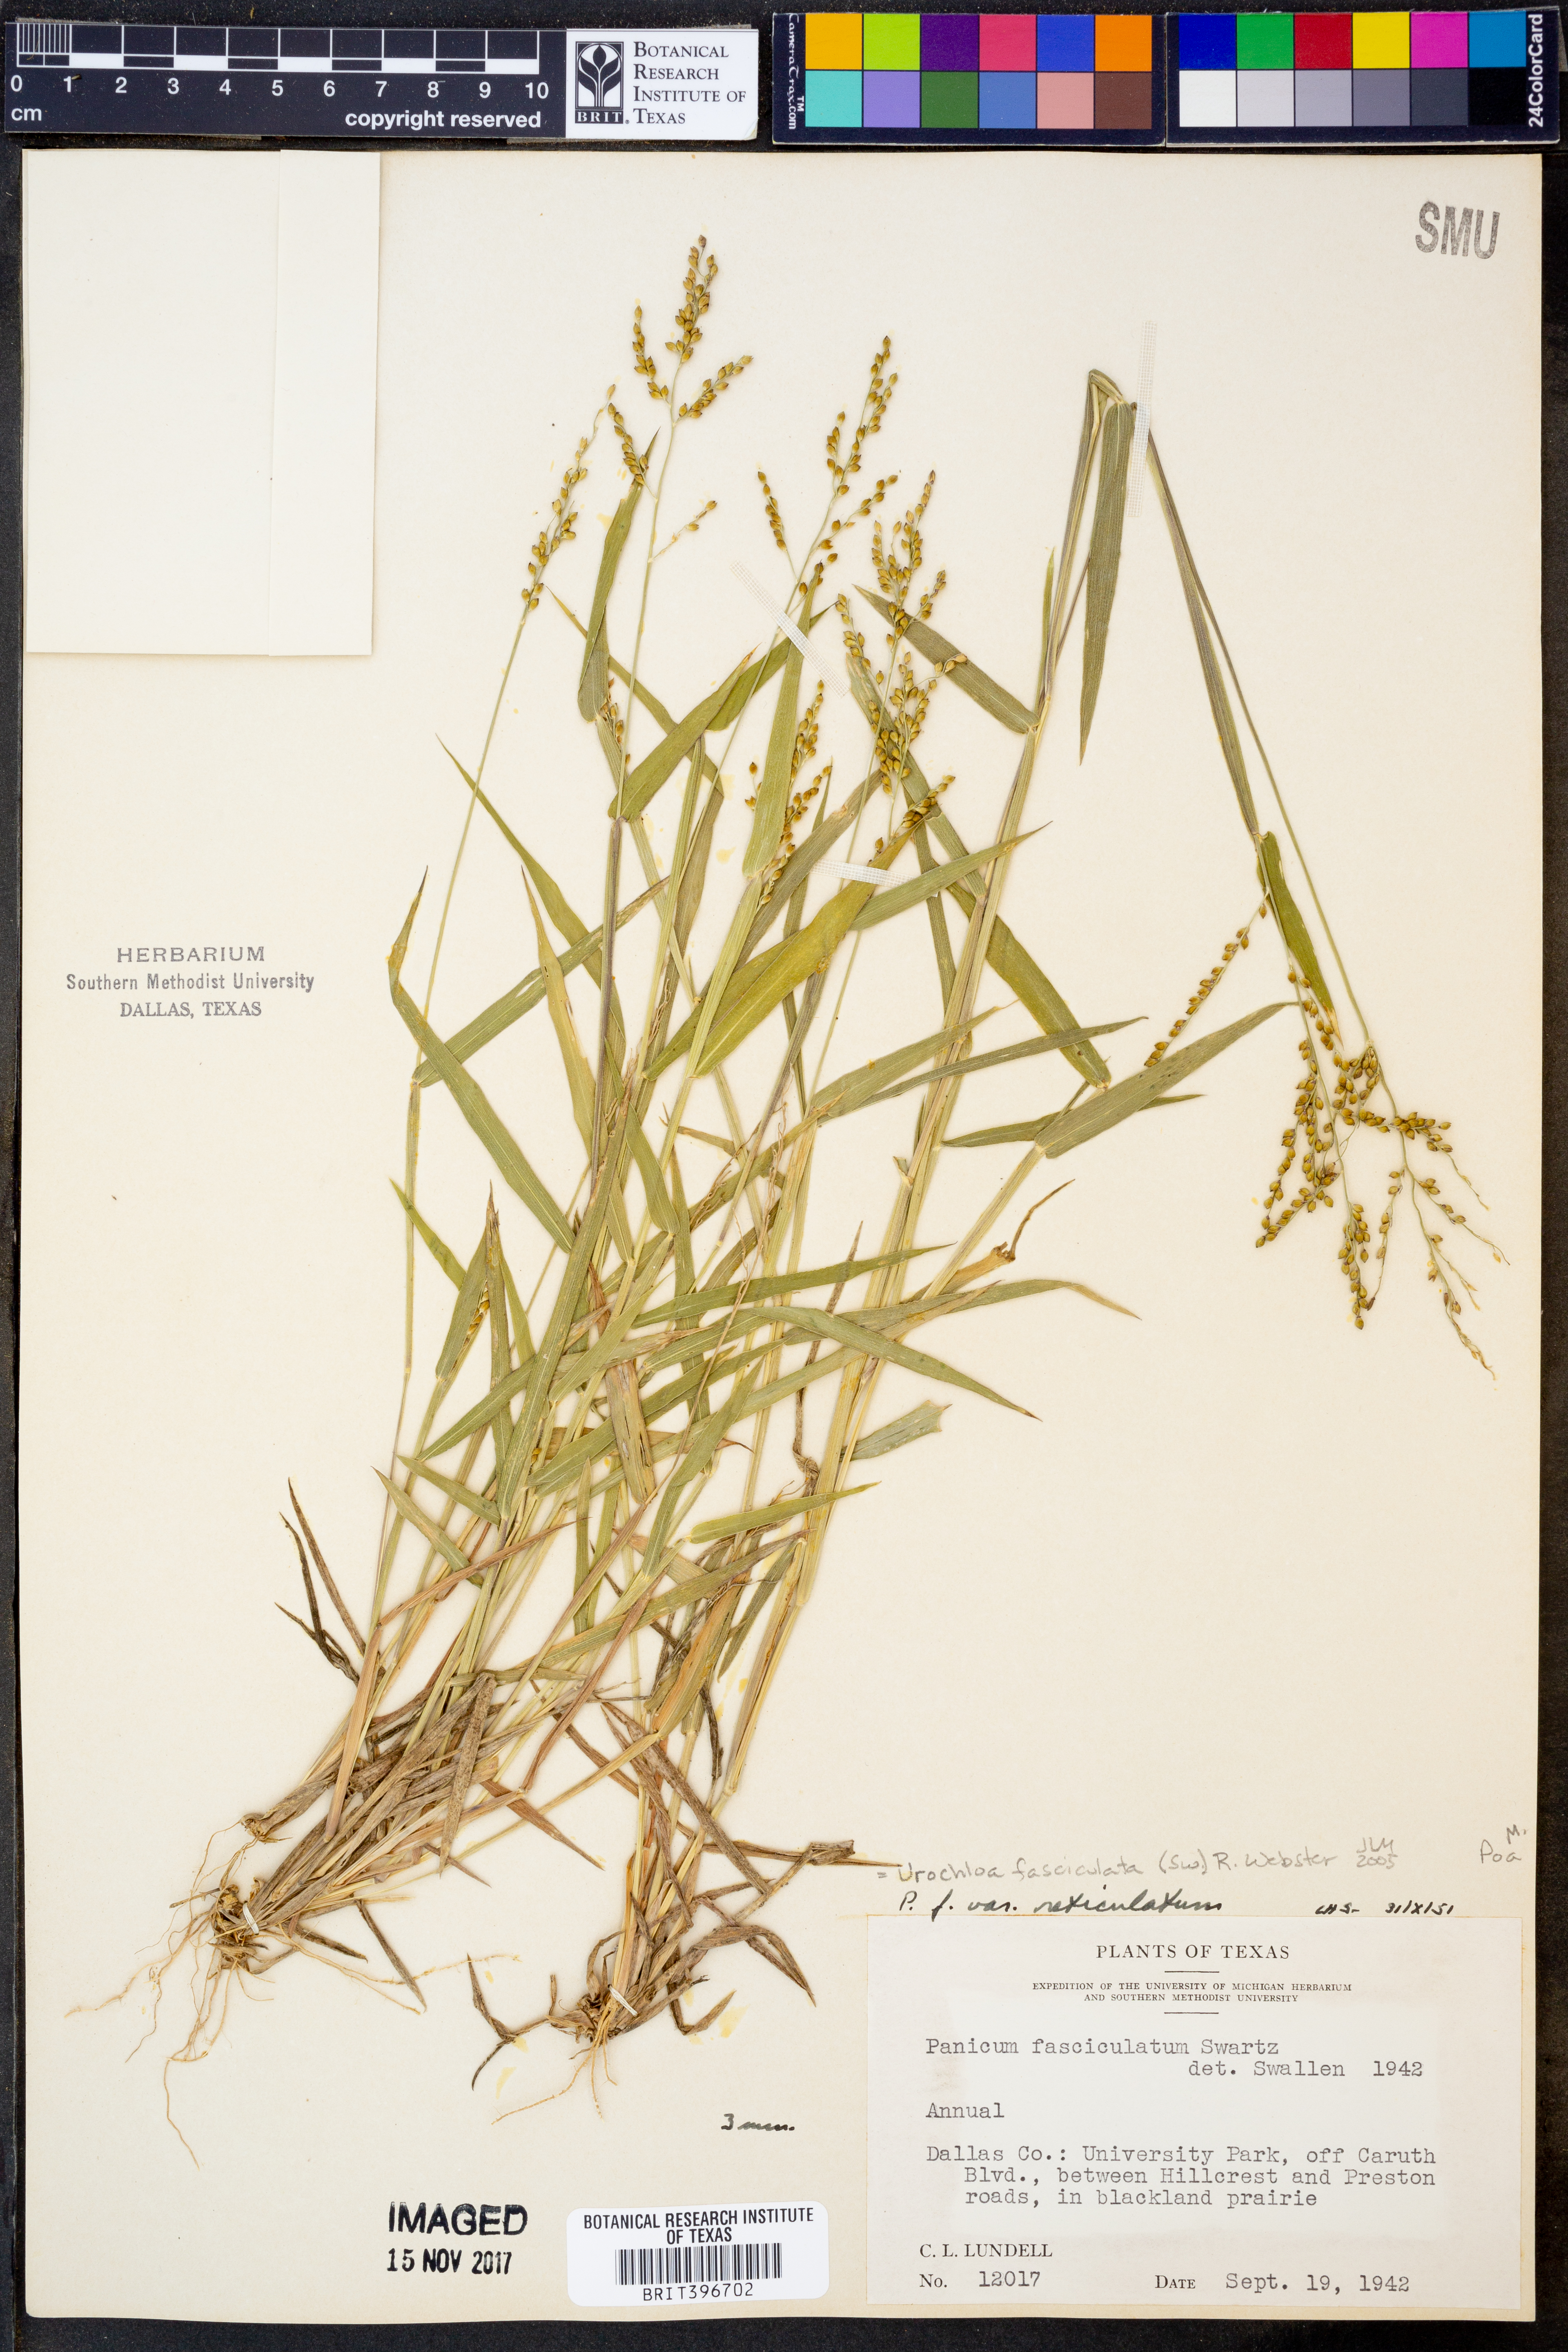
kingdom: Plantae
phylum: Tracheophyta
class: Liliopsida
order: Poales
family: Poaceae
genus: Urochloa
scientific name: Urochloa fusca
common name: Browntop signal grass
